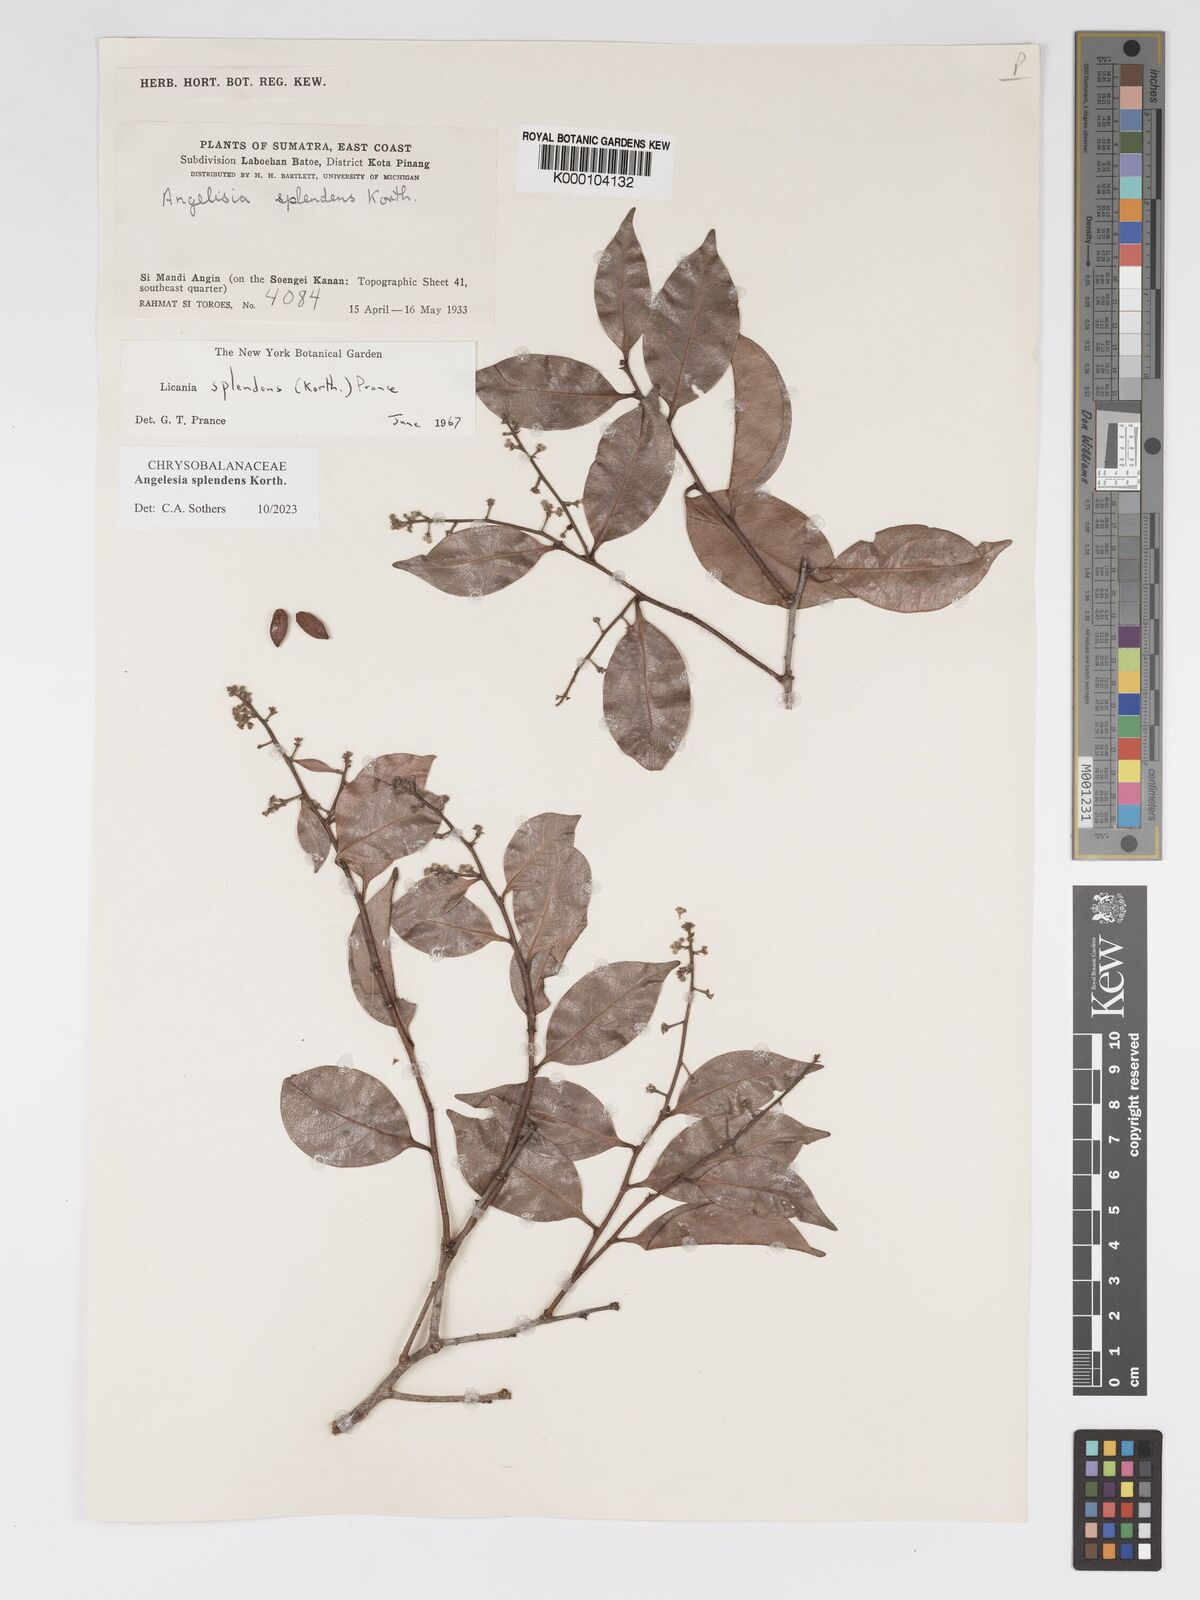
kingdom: Plantae
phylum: Tracheophyta
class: Magnoliopsida
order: Malpighiales
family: Chrysobalanaceae
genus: Angelesia
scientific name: Angelesia splendens
